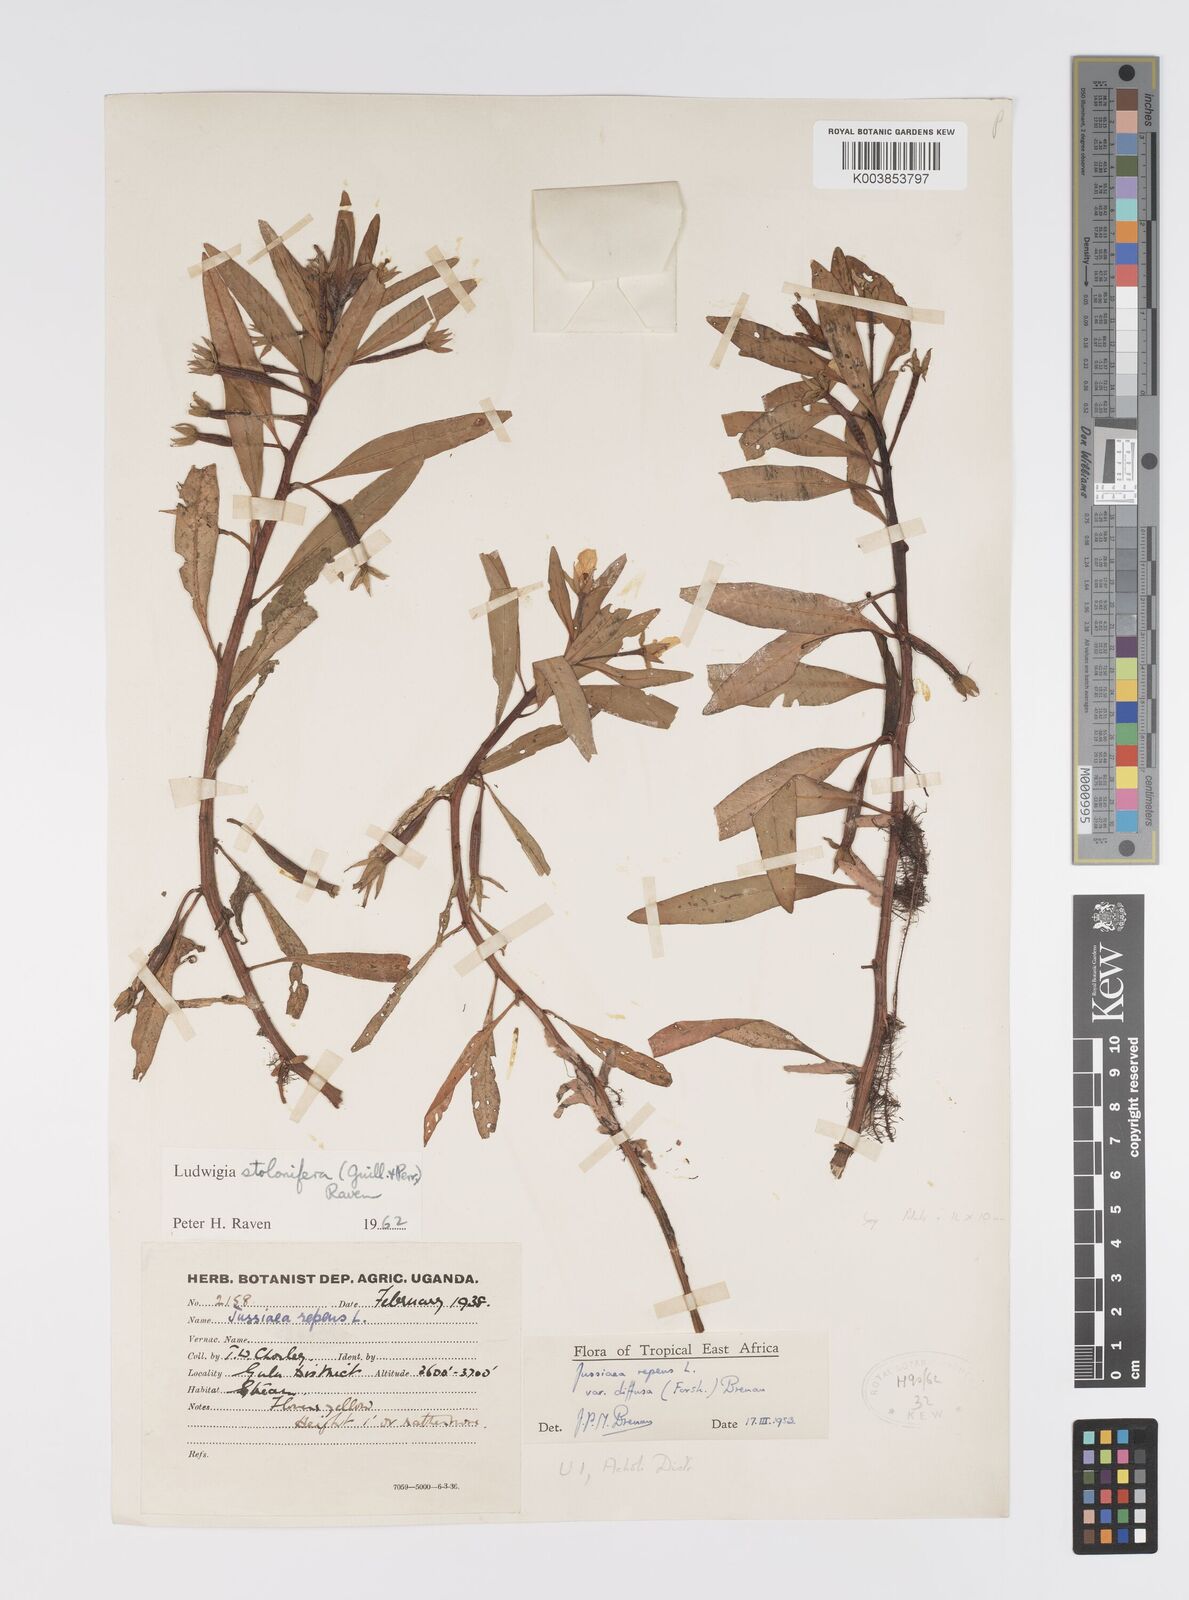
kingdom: Plantae
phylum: Tracheophyta
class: Magnoliopsida
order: Myrtales
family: Onagraceae
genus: Ludwigia
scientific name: Ludwigia adscendens
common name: Creeping water primrose
